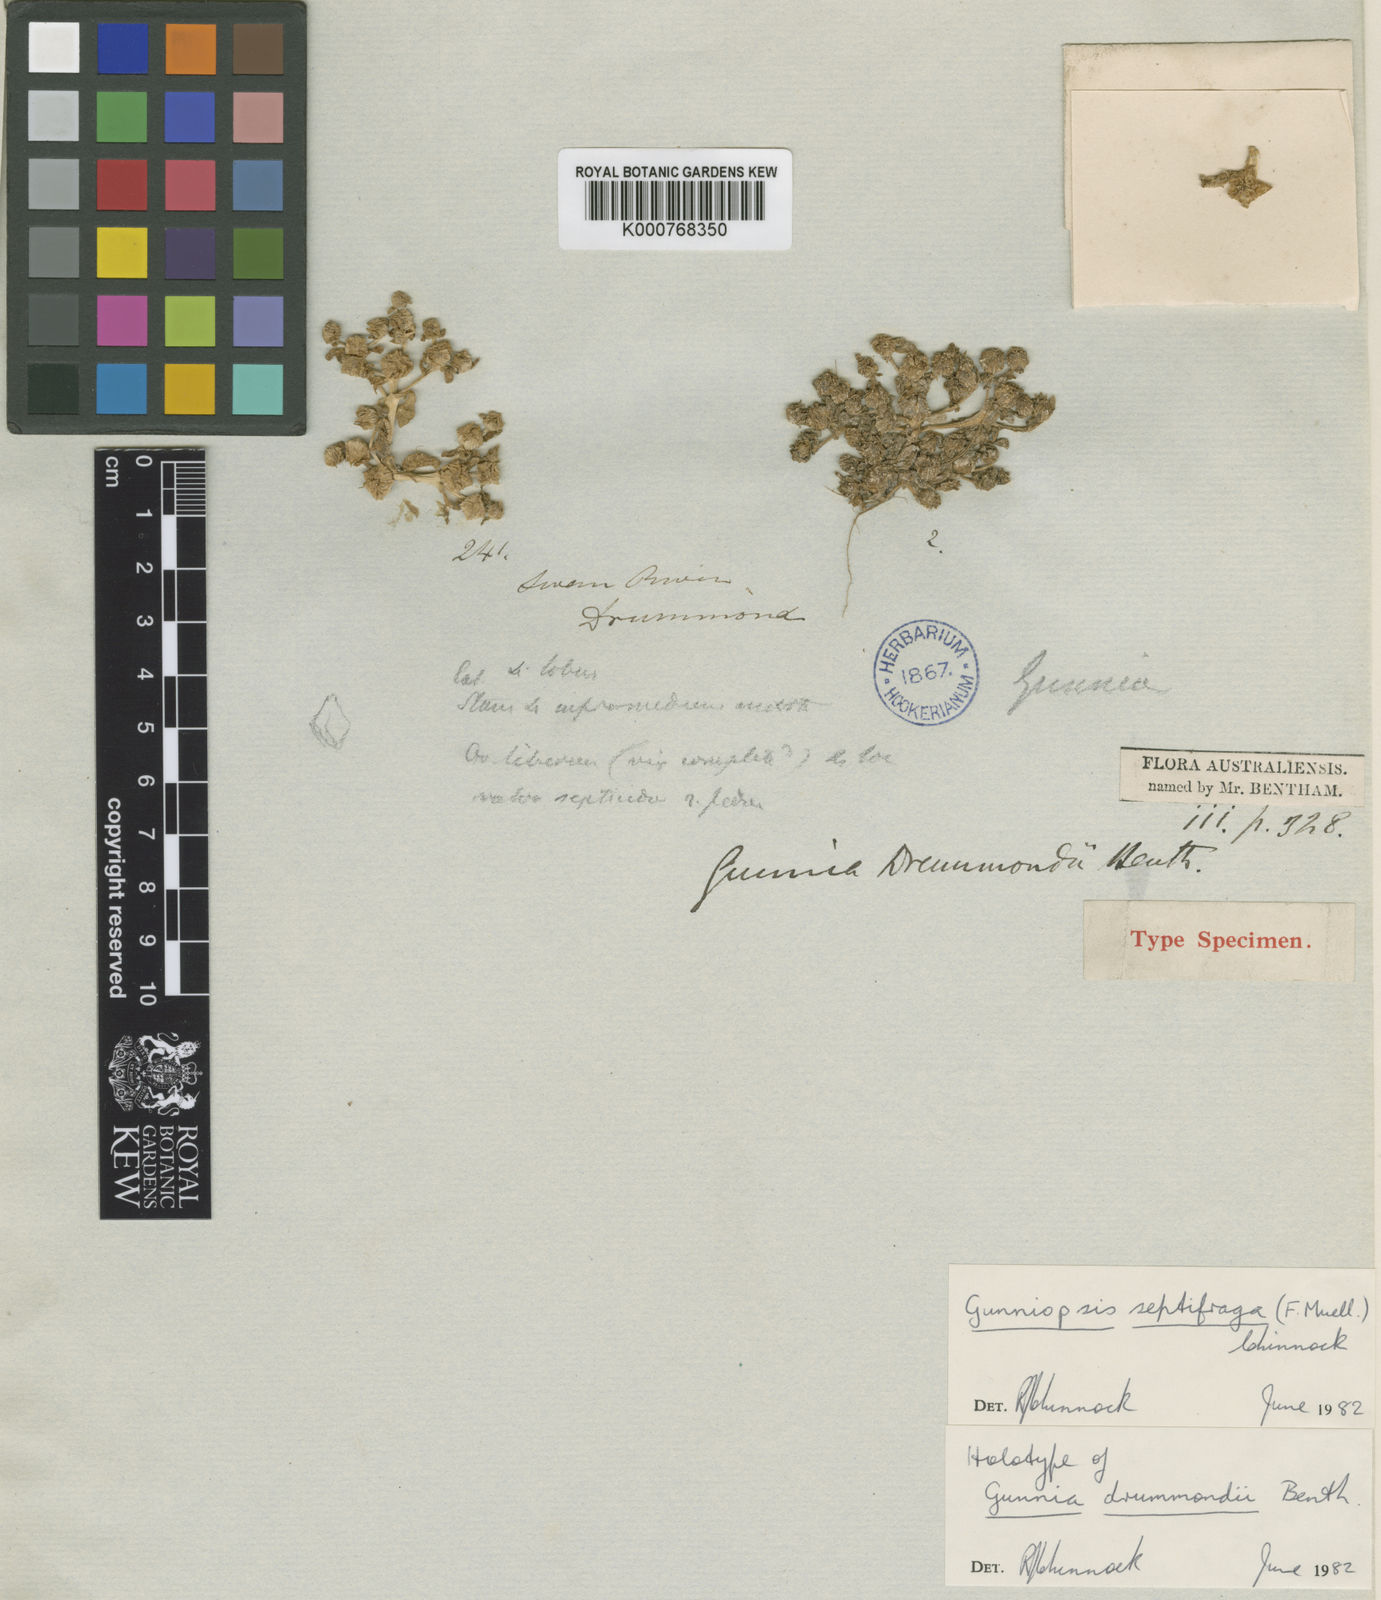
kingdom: Plantae
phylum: Tracheophyta
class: Magnoliopsida
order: Caryophyllales
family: Aizoaceae
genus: Gunniopsis
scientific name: Gunniopsis septifraga
